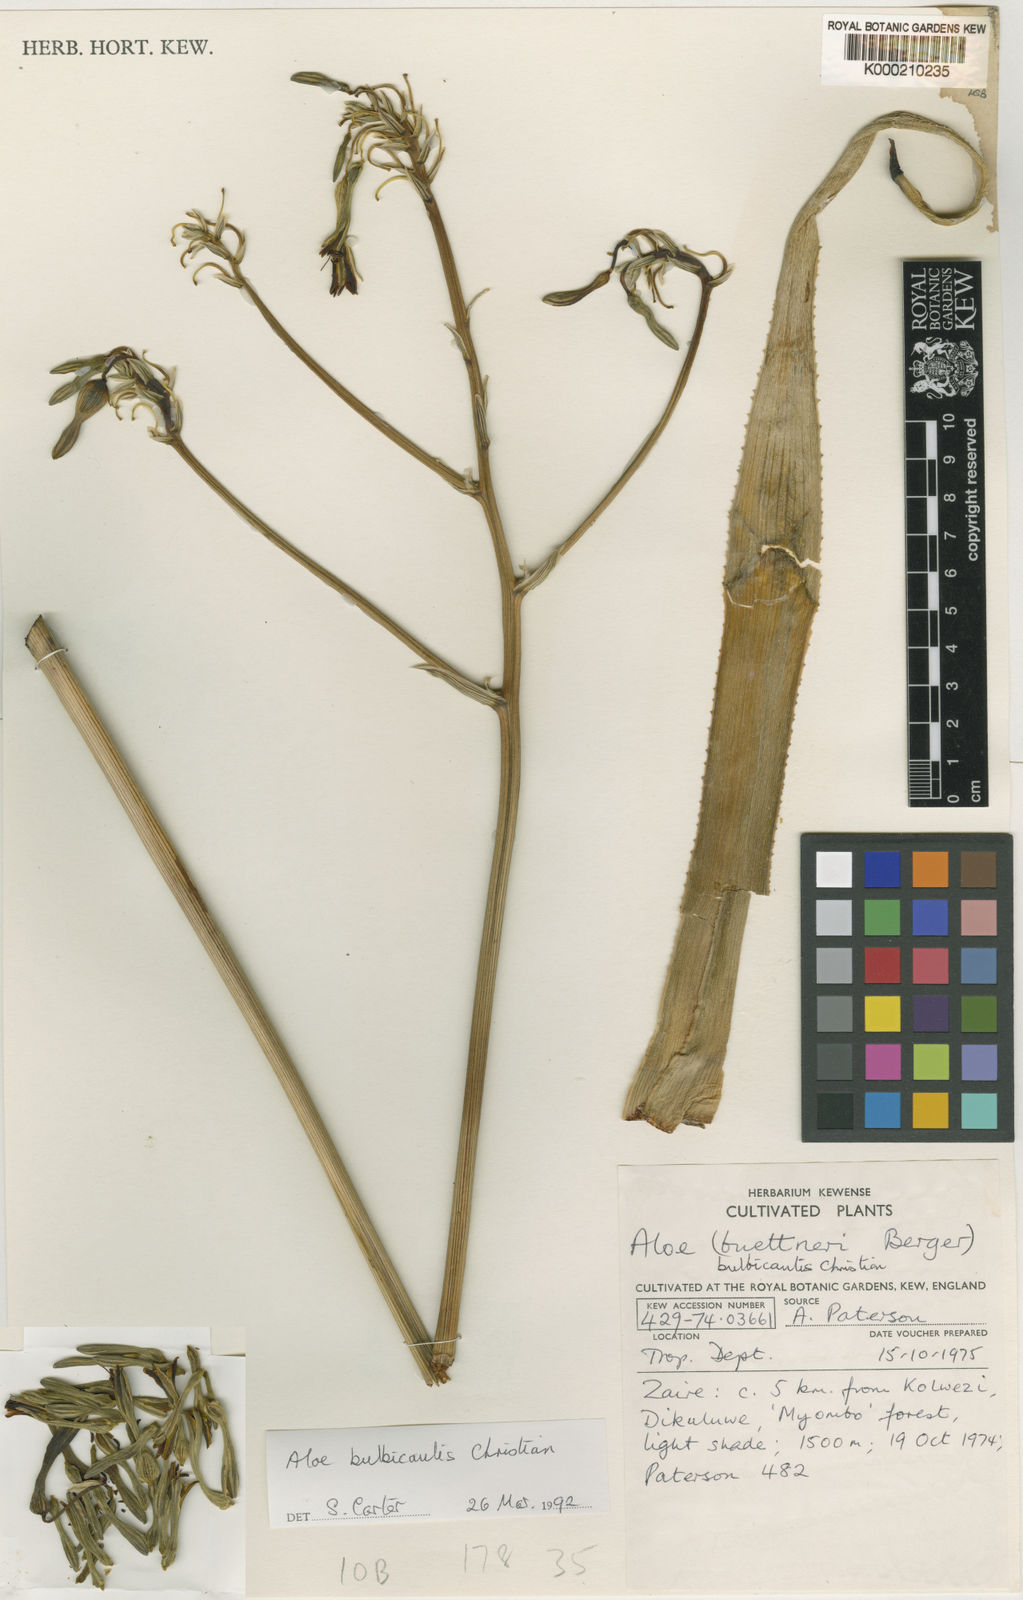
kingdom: Plantae
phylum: Tracheophyta
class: Liliopsida
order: Asparagales
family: Asphodelaceae
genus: Aloe
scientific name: Aloe bulbicaulis
